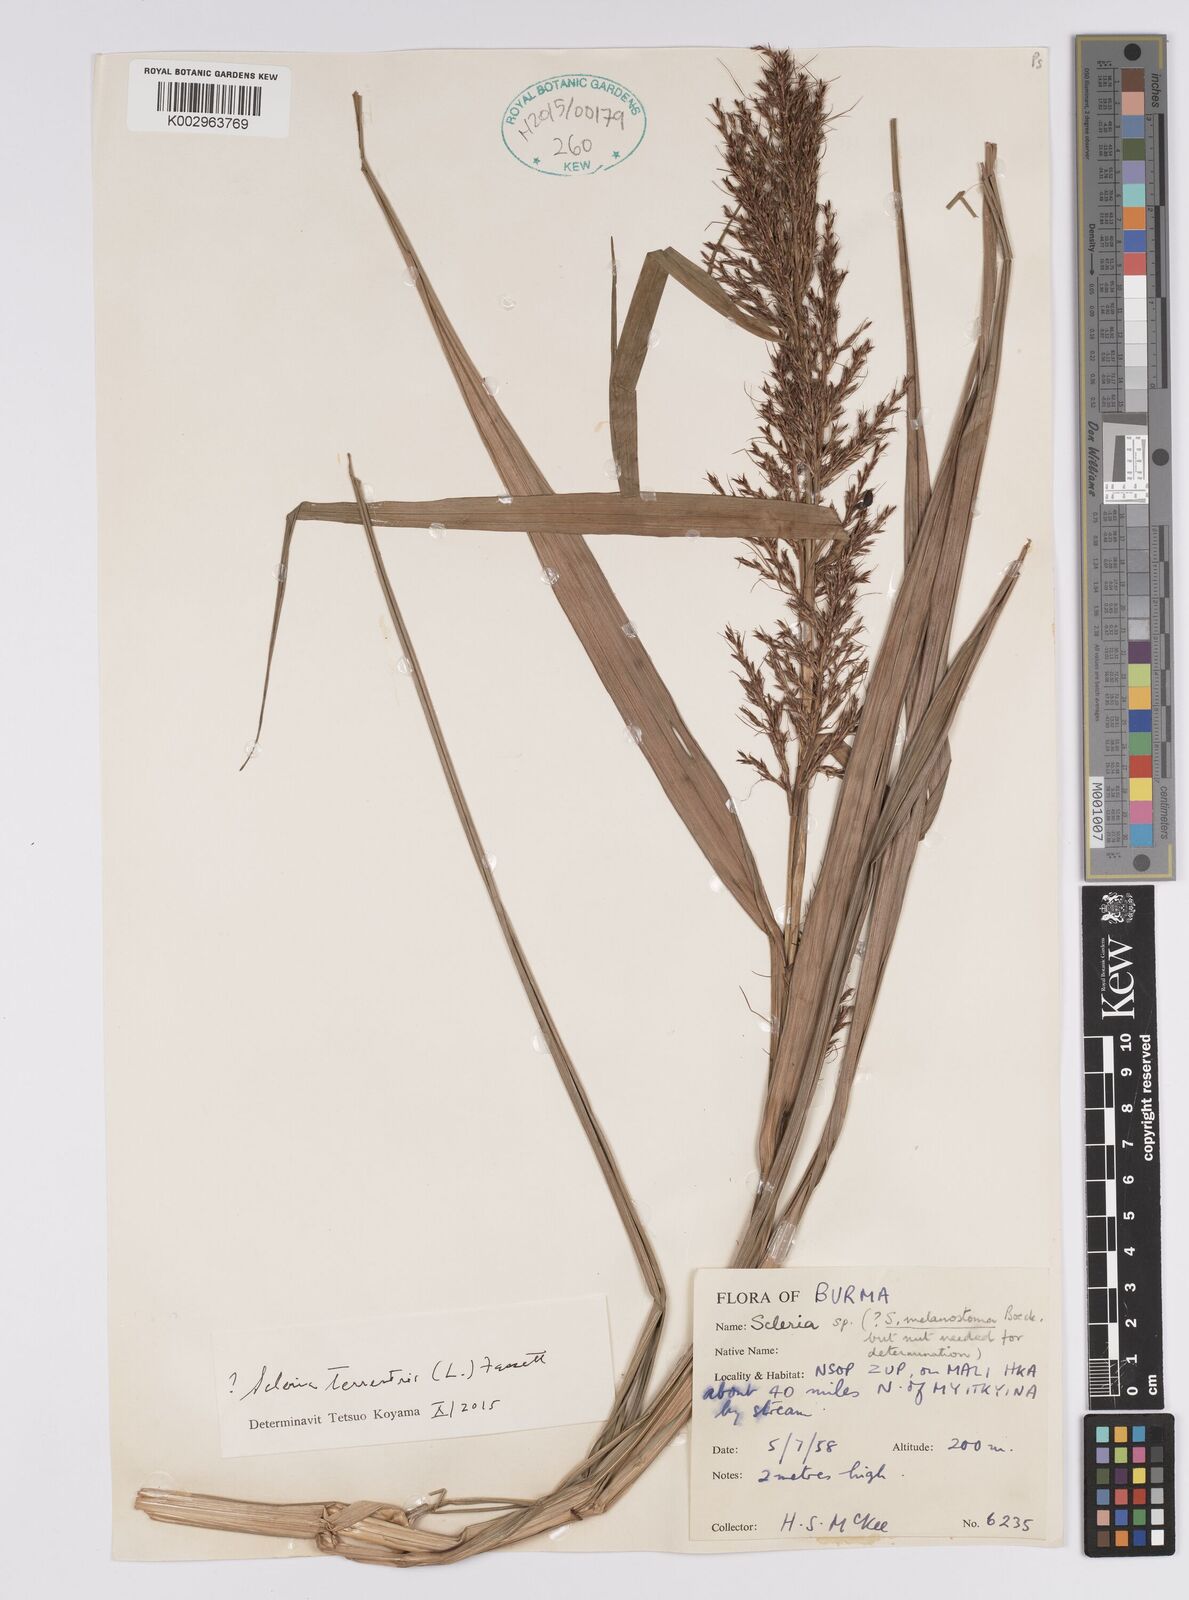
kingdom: Plantae
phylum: Tracheophyta
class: Liliopsida
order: Poales
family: Cyperaceae
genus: Scleria
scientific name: Scleria terrestris
